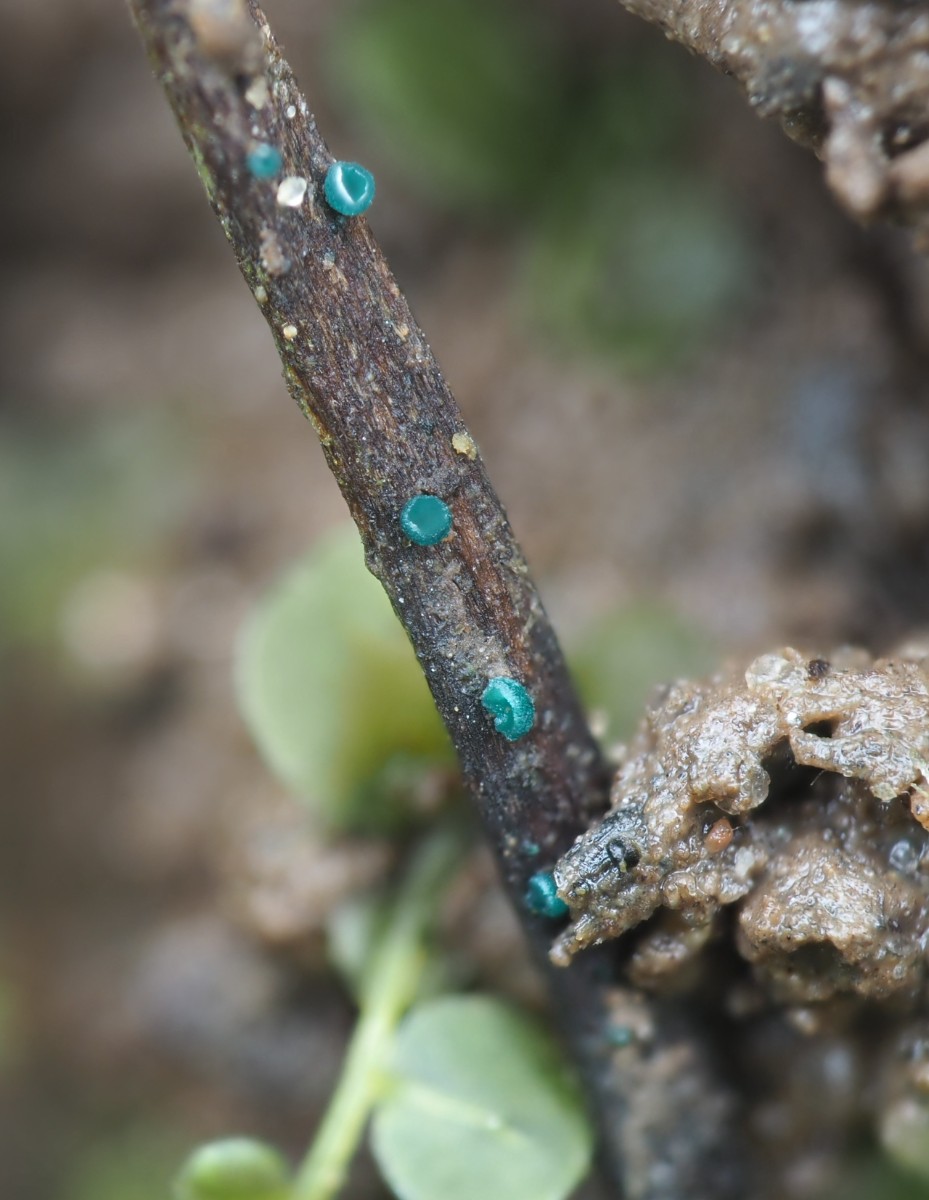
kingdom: Fungi
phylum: Ascomycota
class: Leotiomycetes
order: Helotiales
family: Chlorociboriaceae
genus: Chlorociboria
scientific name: Chlorociboria aeruginella
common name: urte-grønskive
